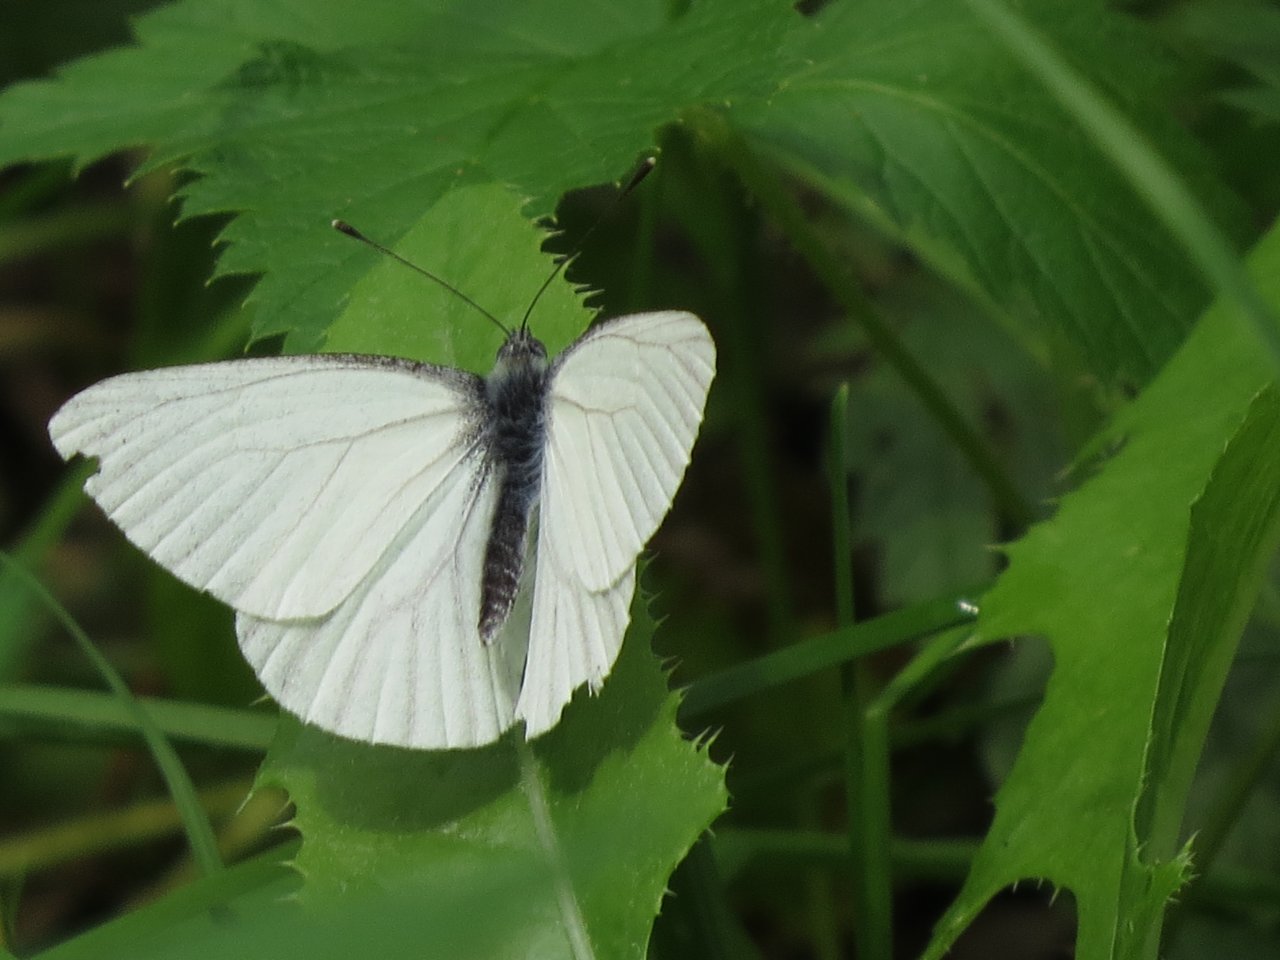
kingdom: Animalia
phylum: Arthropoda
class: Insecta
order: Lepidoptera
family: Pieridae
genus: Pieris
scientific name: Pieris oleracea
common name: Mustard White
